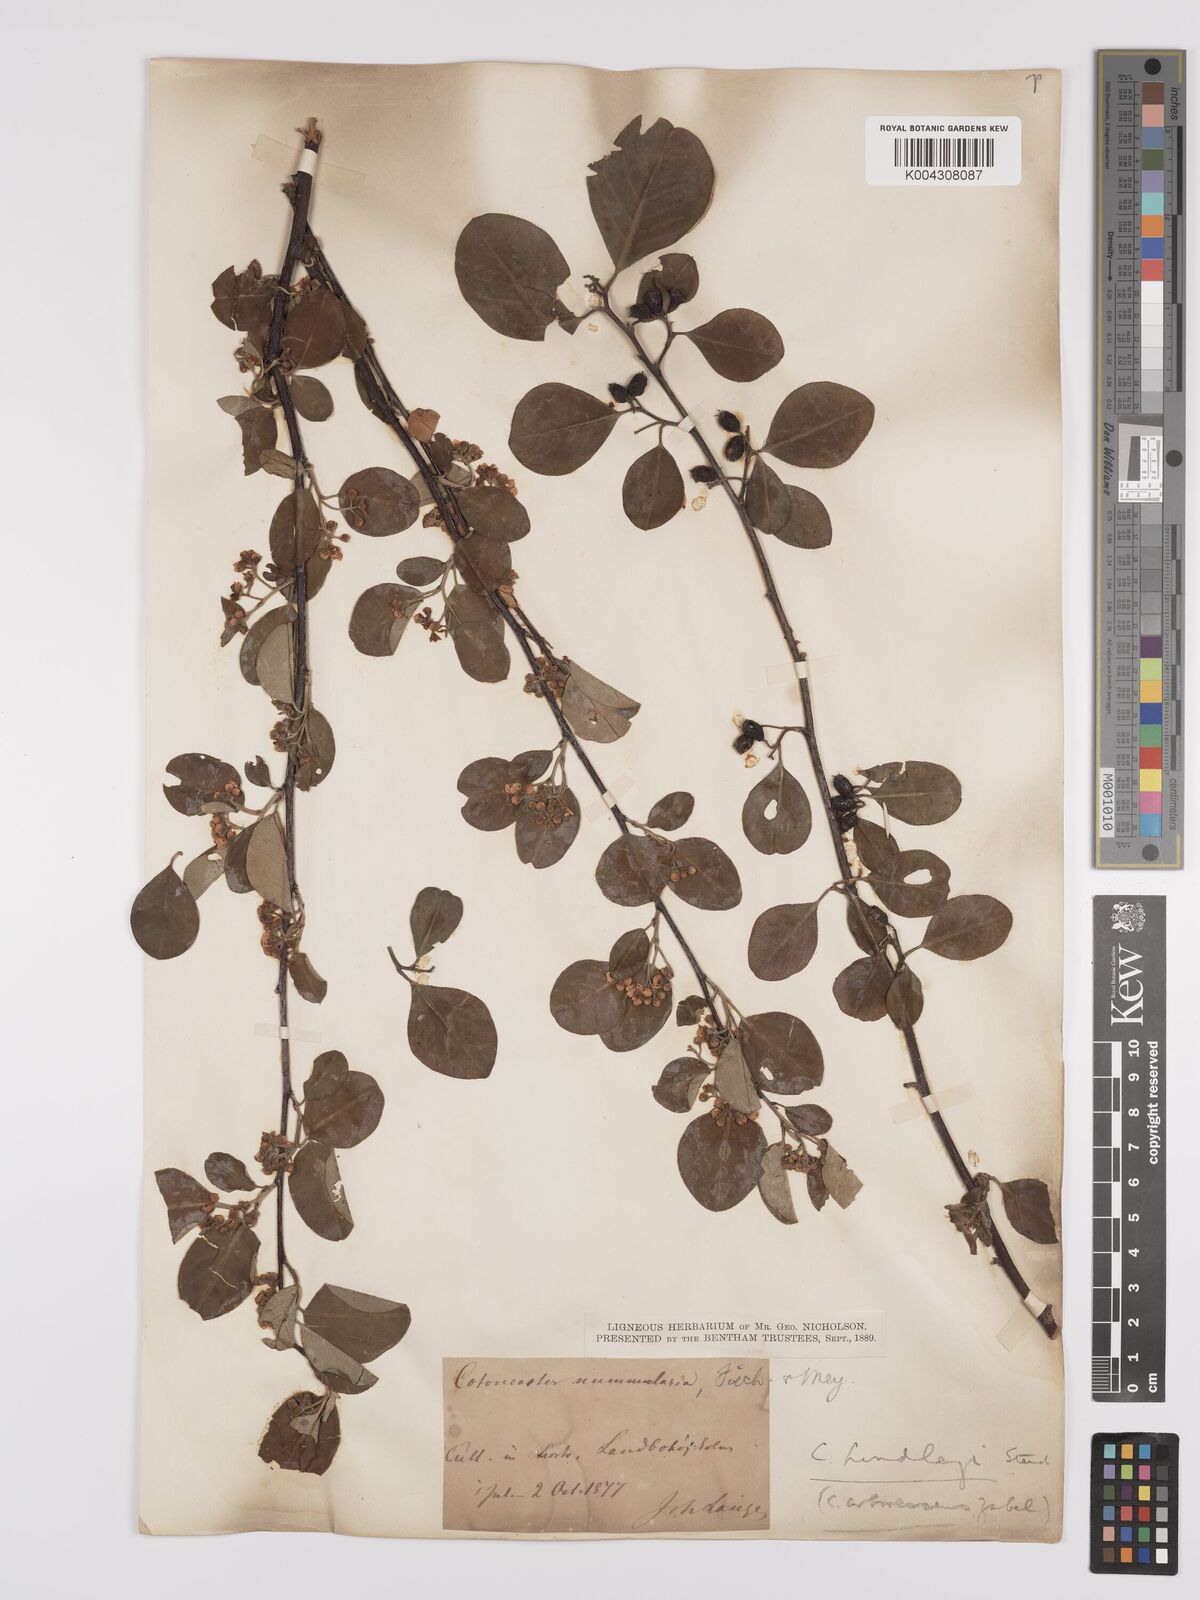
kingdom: Plantae
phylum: Tracheophyta
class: Magnoliopsida
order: Rosales
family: Rosaceae
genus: Cotoneaster
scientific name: Cotoneaster lindleyi
